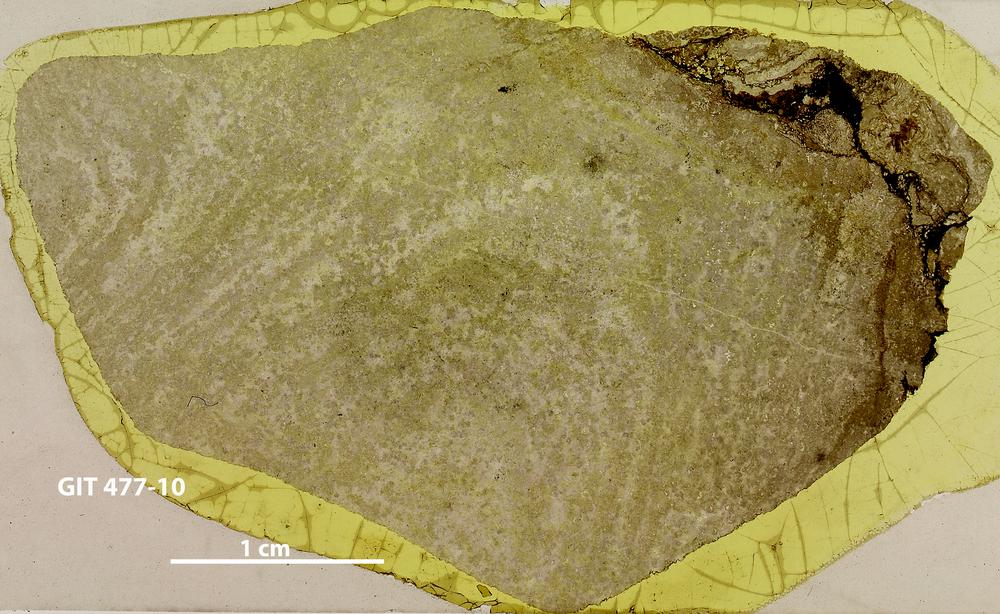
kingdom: Animalia
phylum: Porifera
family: Labechiidae
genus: Labechia
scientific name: Labechia
